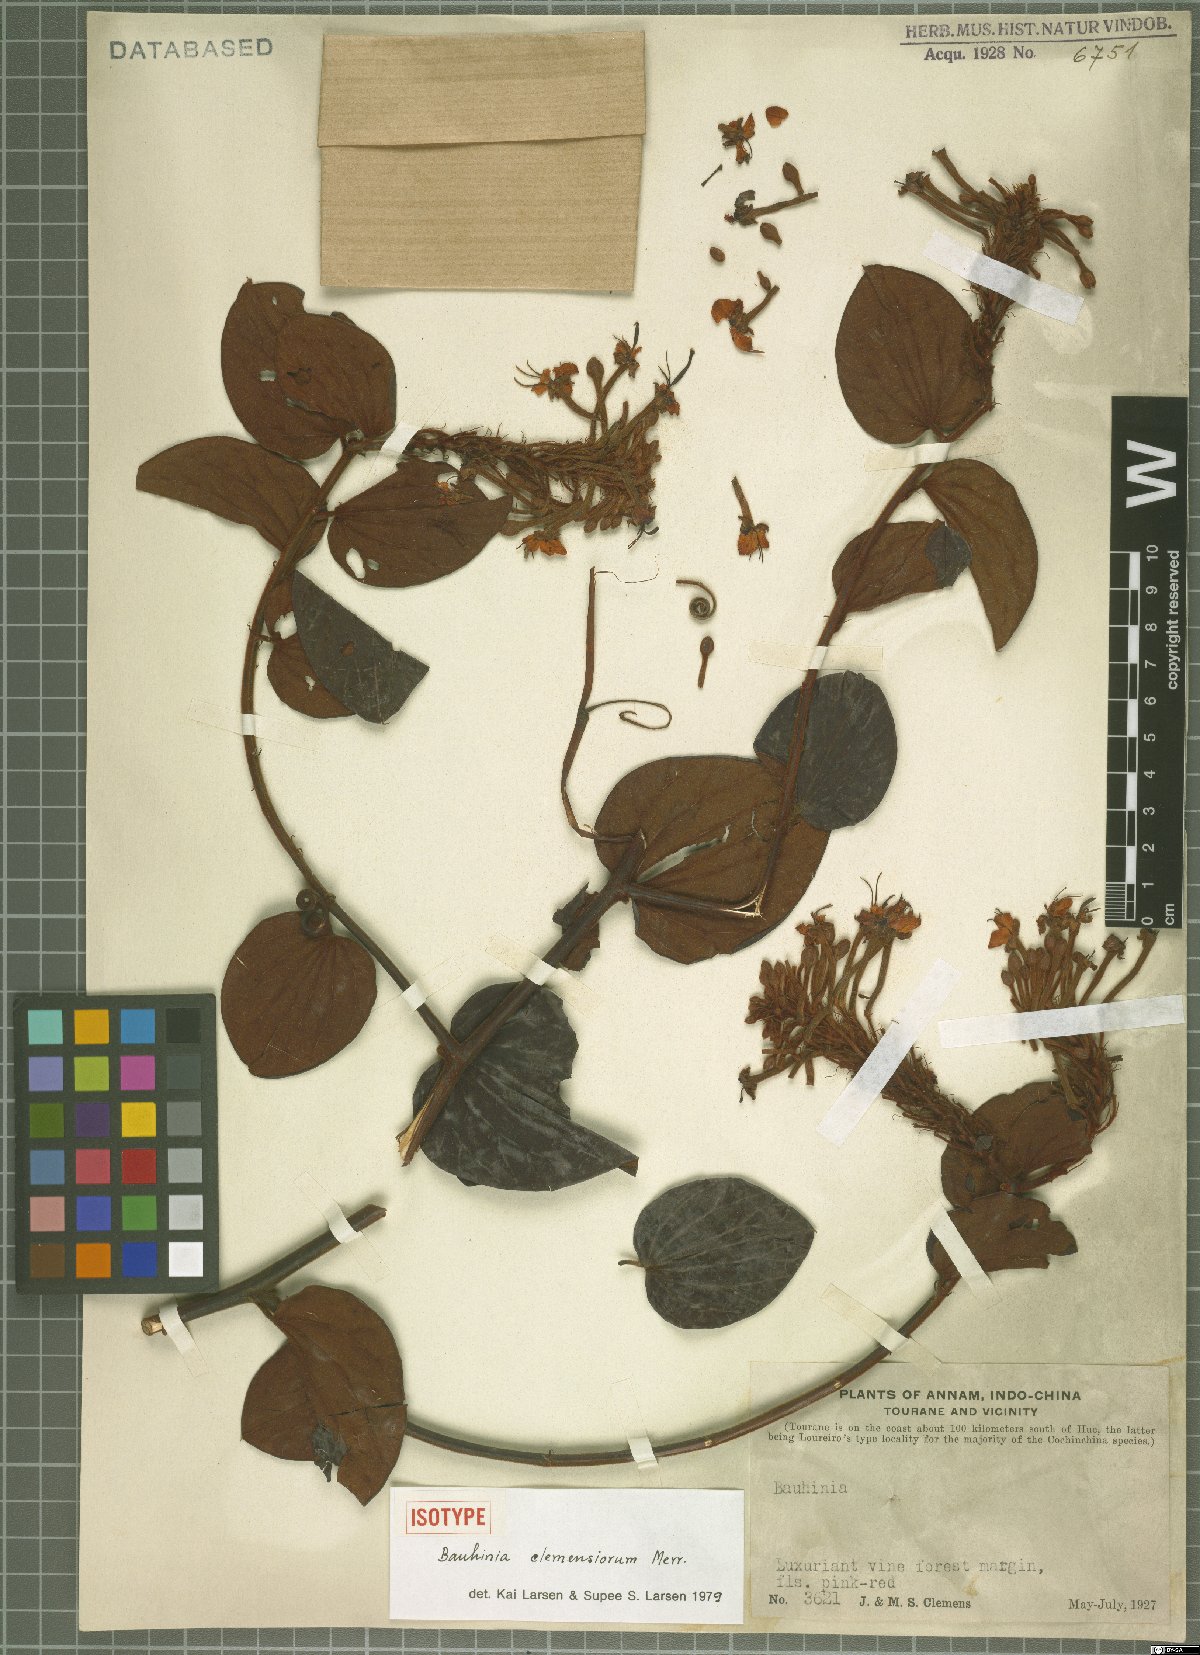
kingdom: Plantae
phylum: Tracheophyta
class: Magnoliopsida
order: Fabales
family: Fabaceae
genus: Cheniella
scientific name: Cheniella clemensiorum
